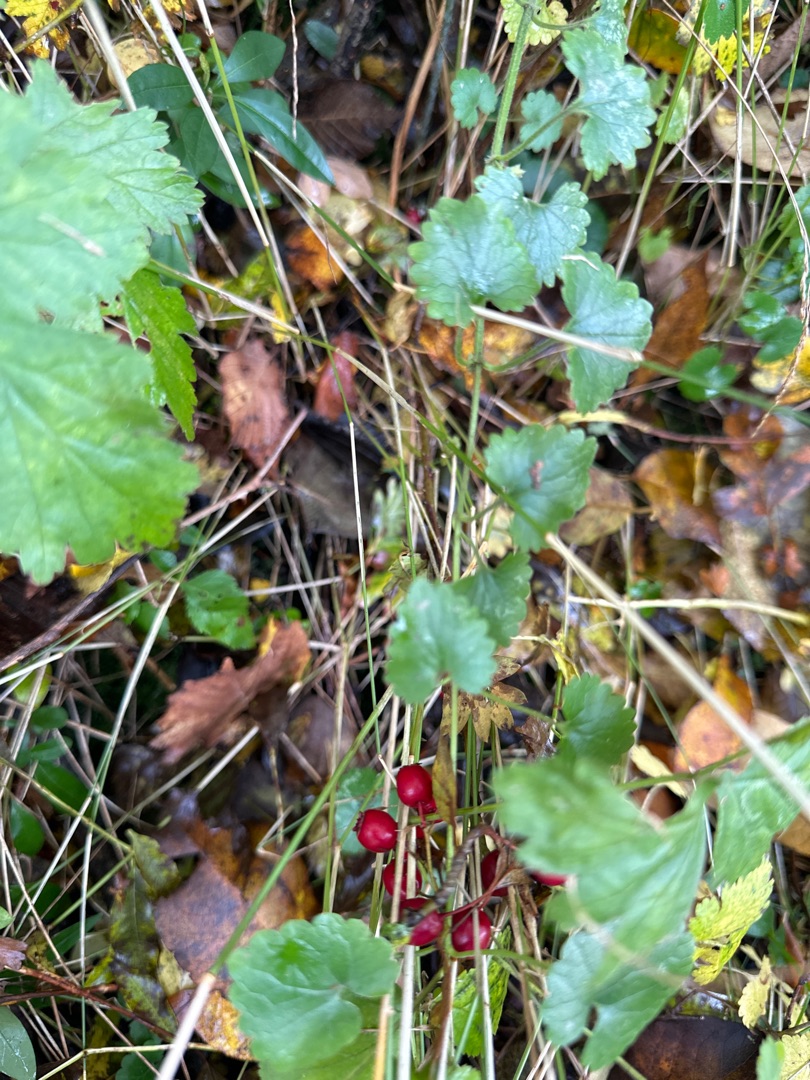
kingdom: Plantae
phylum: Tracheophyta
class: Magnoliopsida
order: Lamiales
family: Lamiaceae
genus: Glechoma
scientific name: Glechoma hederacea
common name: Korsknap
